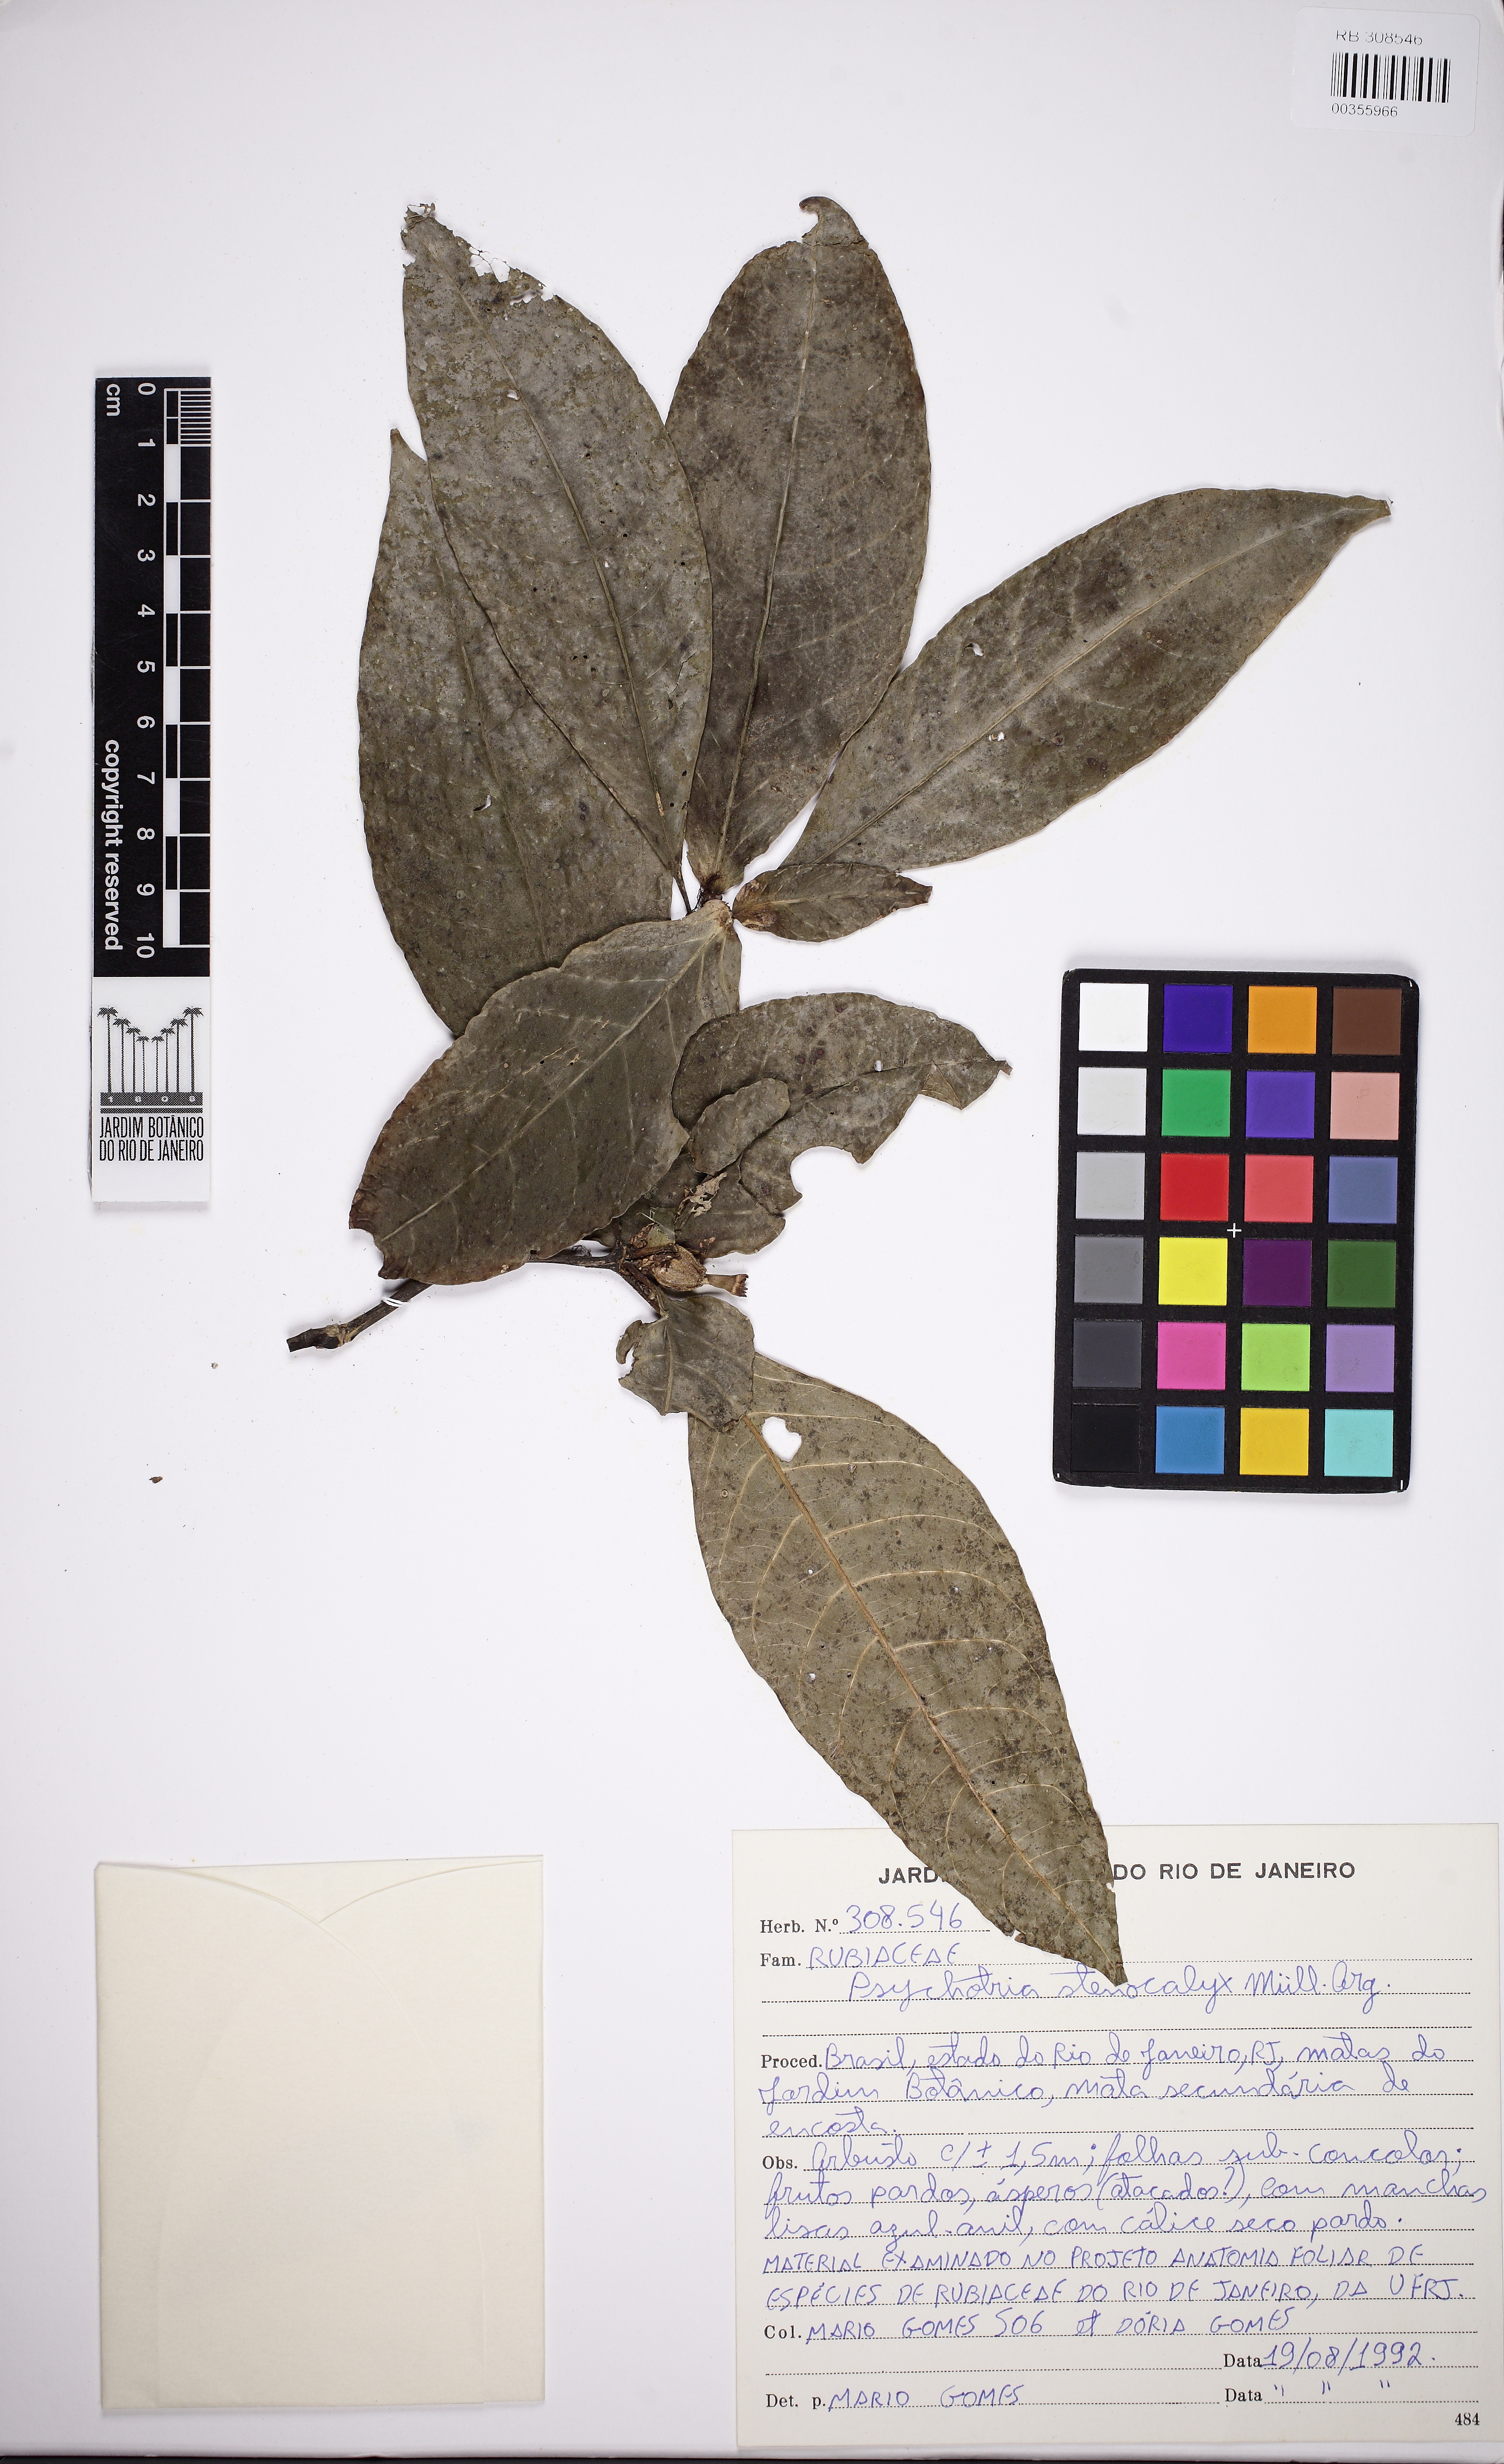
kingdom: Plantae
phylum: Tracheophyta
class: Magnoliopsida
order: Gentianales
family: Rubiaceae
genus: Psychotria
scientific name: Psychotria stenocalyx
